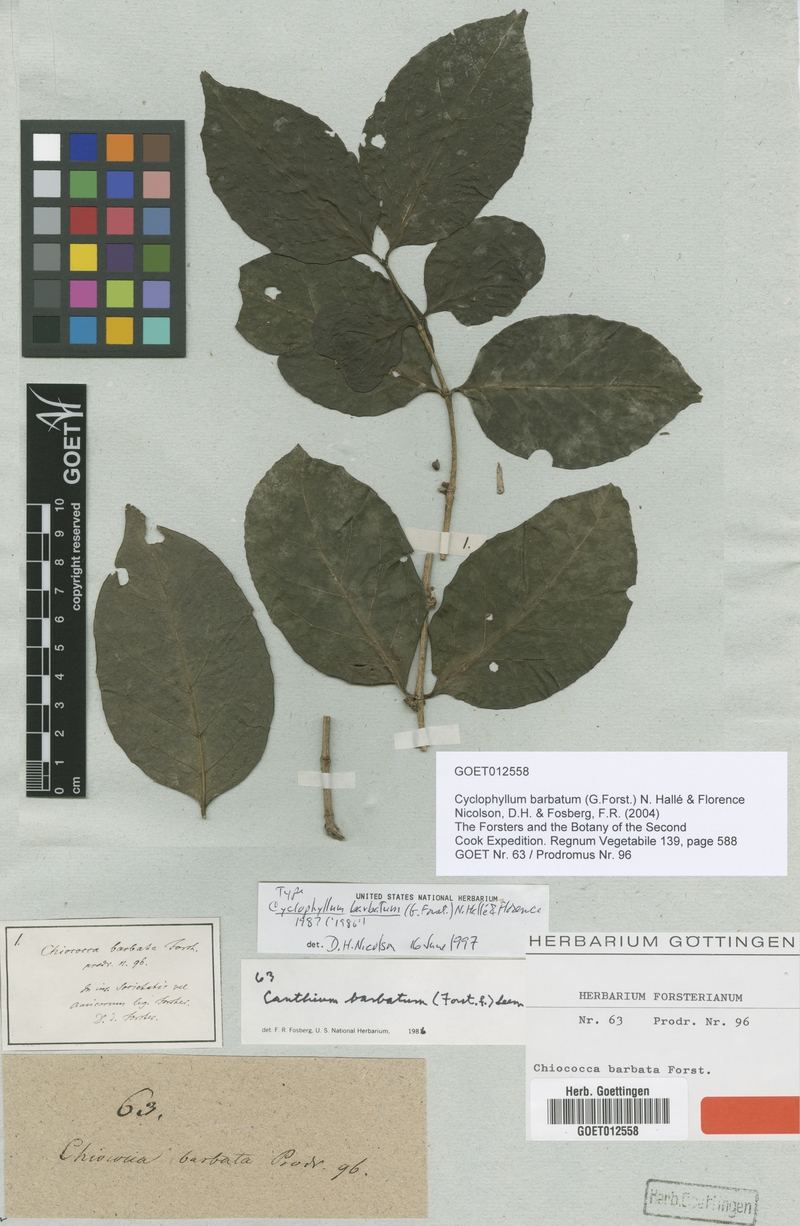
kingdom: Plantae
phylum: Tracheophyta
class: Magnoliopsida
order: Gentianales
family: Rubiaceae
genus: Cyclophyllum
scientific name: Cyclophyllum barbatum
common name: Cyclophyllum
